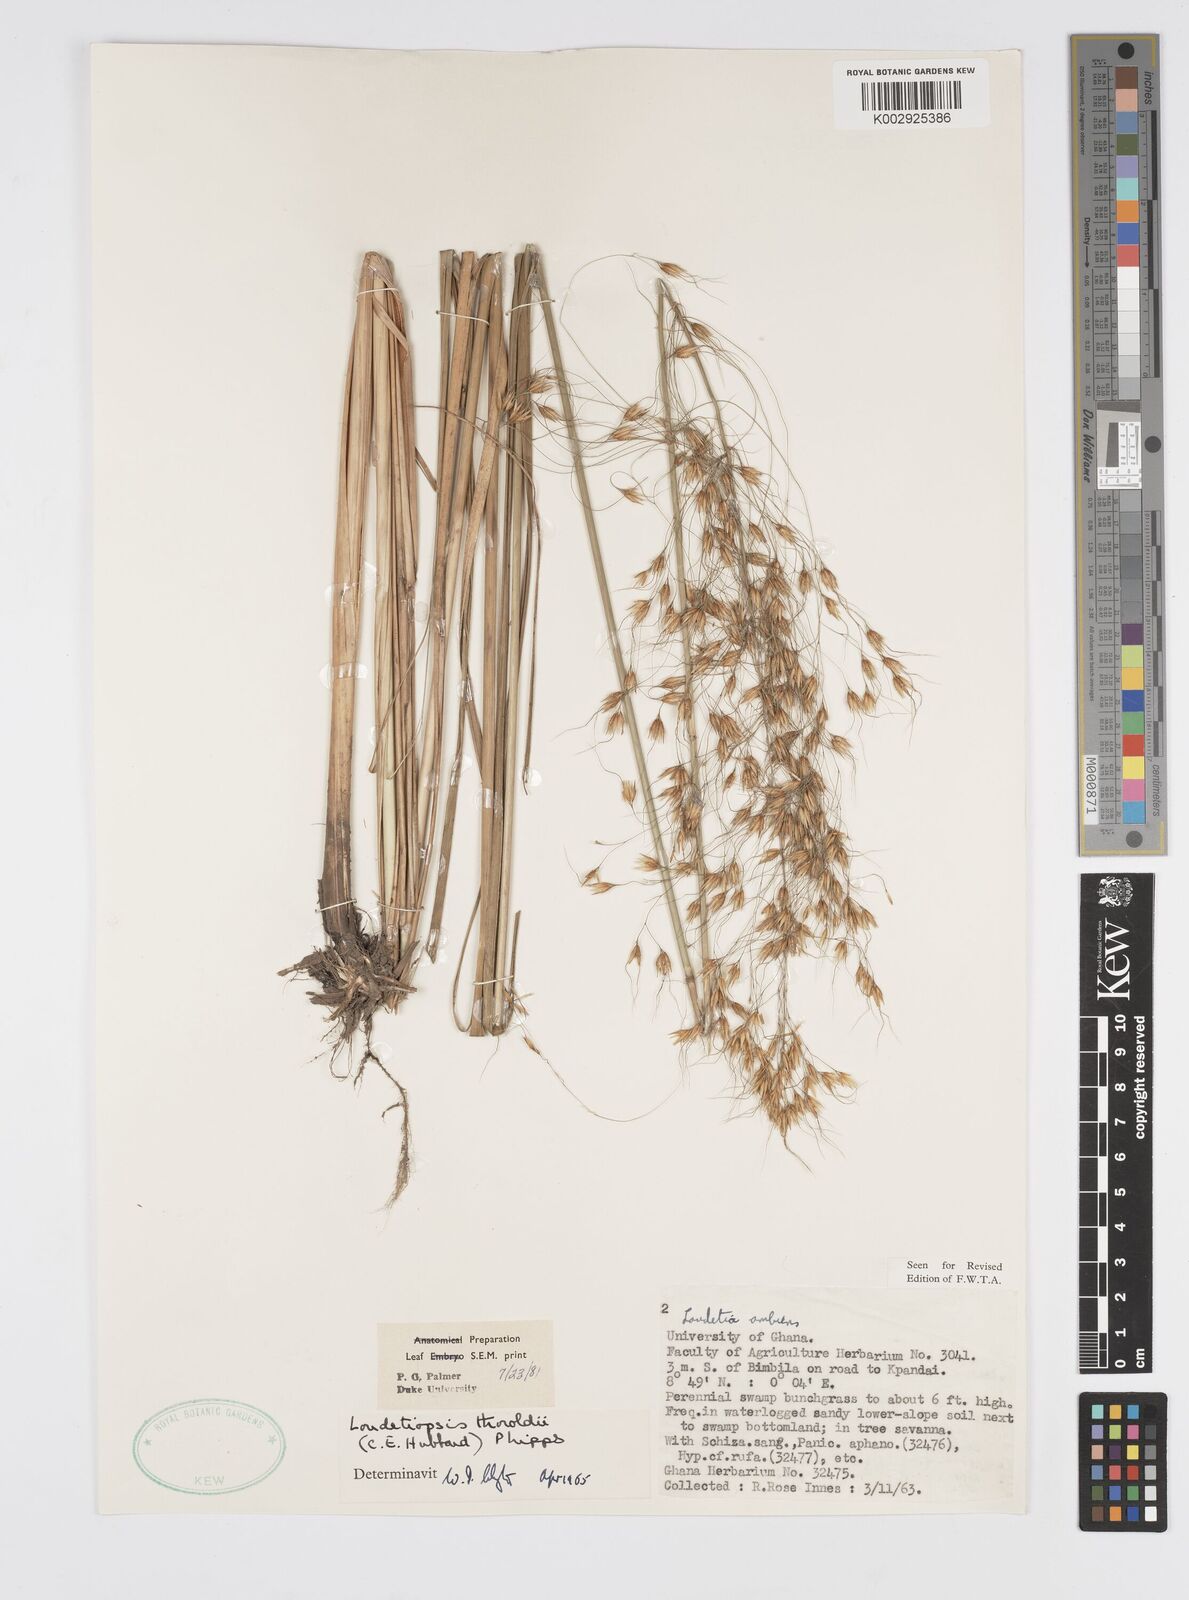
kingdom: Plantae
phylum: Tracheophyta
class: Liliopsida
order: Poales
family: Poaceae
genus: Loudetiopsis
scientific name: Loudetiopsis thoroldii
